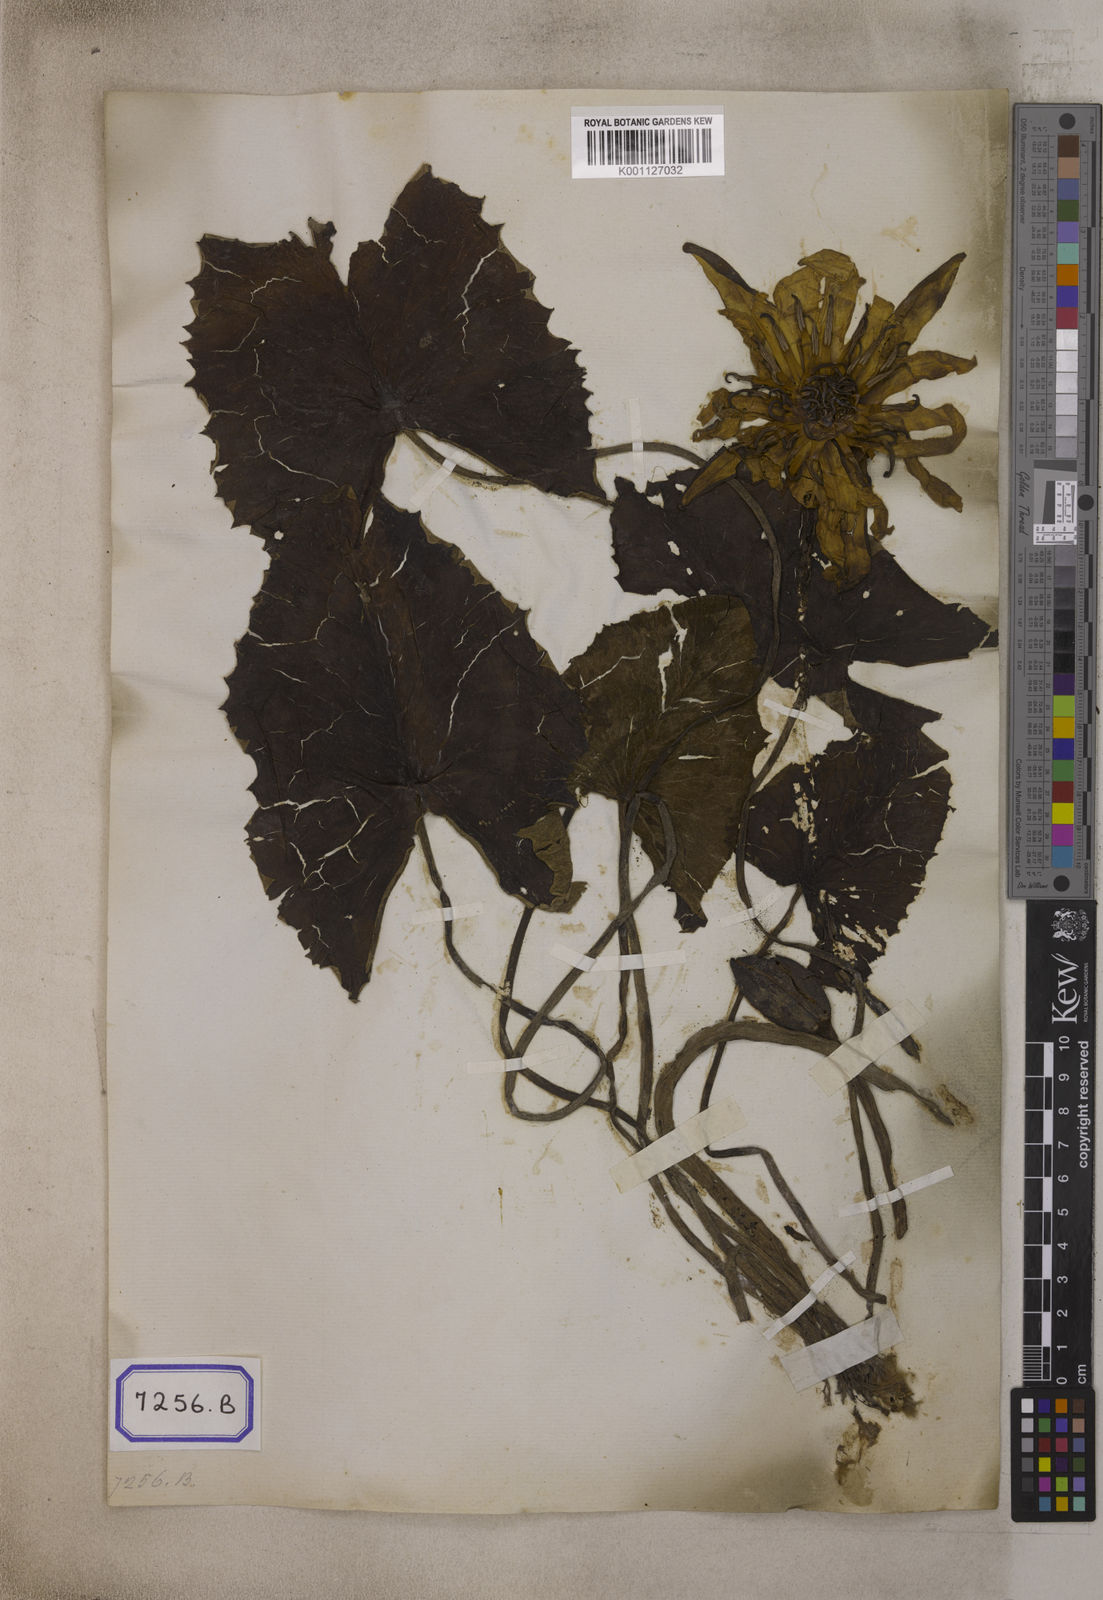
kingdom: Plantae
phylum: Tracheophyta
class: Magnoliopsida
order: Nymphaeales
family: Nymphaeaceae
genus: Nymphaea
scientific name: Nymphaea pubescens
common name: Hairy water lily
